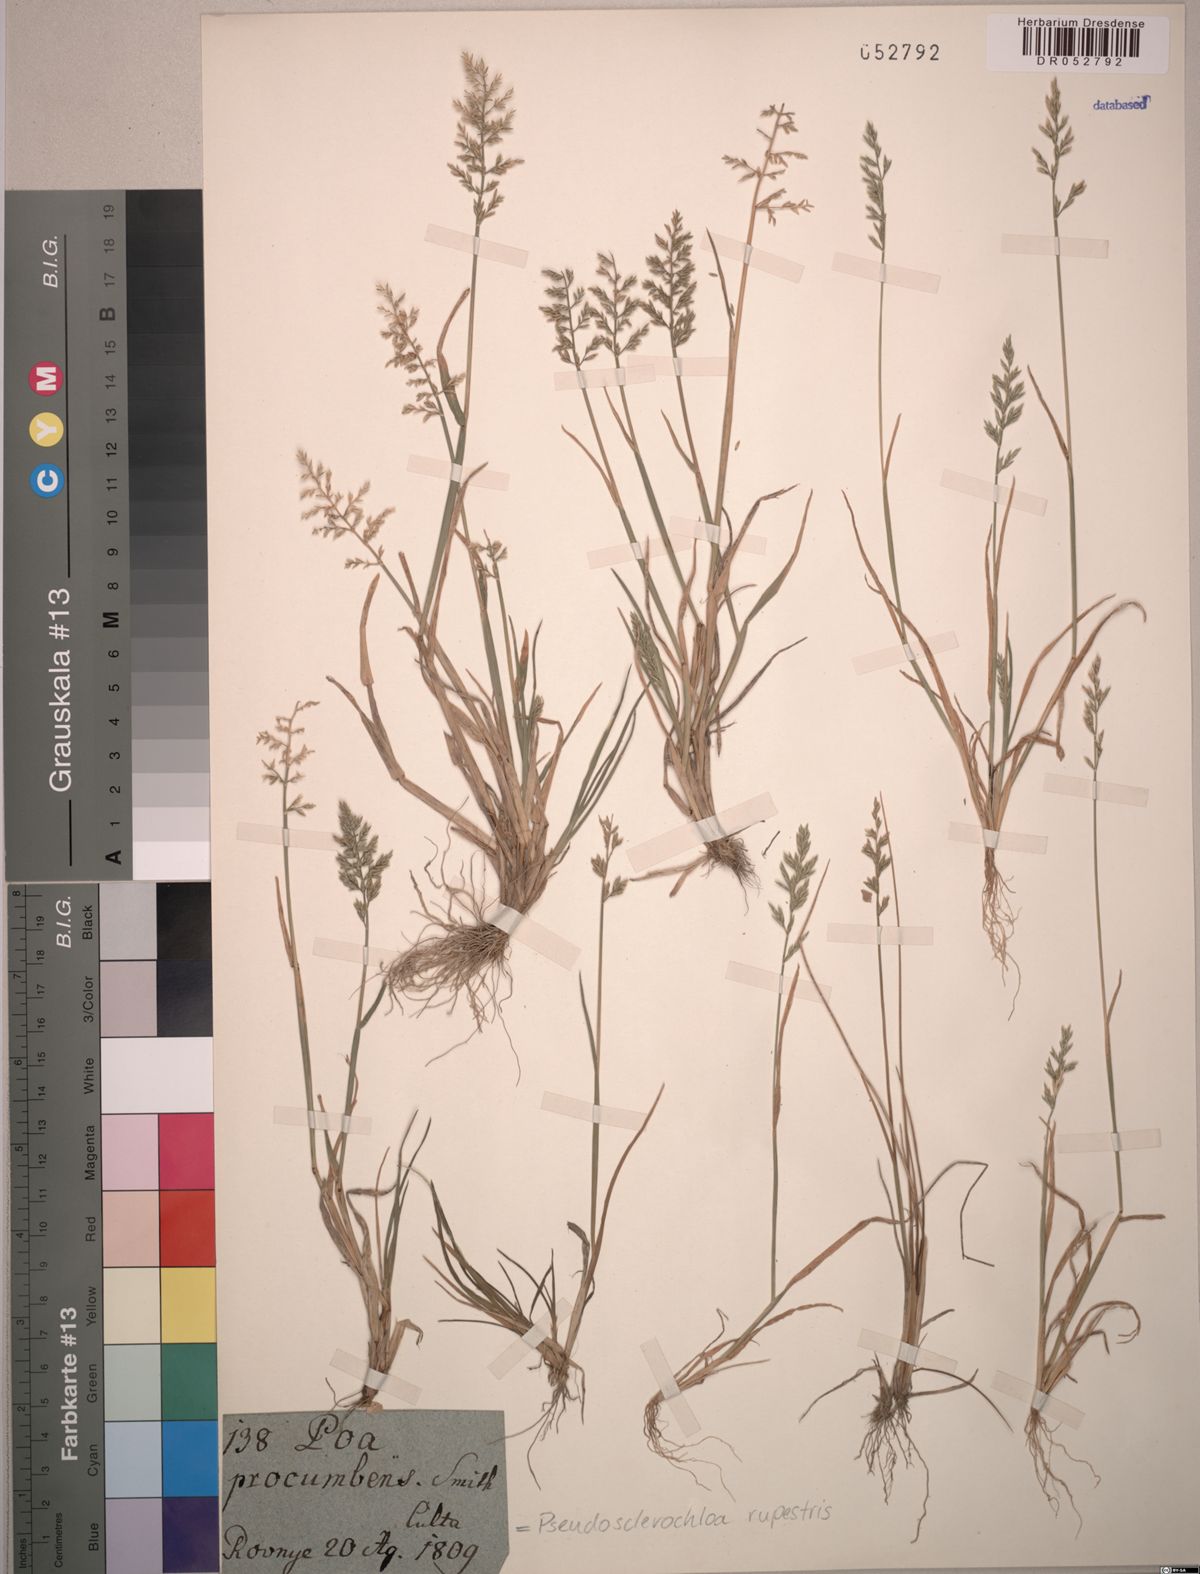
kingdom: Plantae
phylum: Tracheophyta
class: Liliopsida
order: Poales
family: Poaceae
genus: Puccinellia
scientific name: Puccinellia rupestris
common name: Stiff saltmarsh-grass
